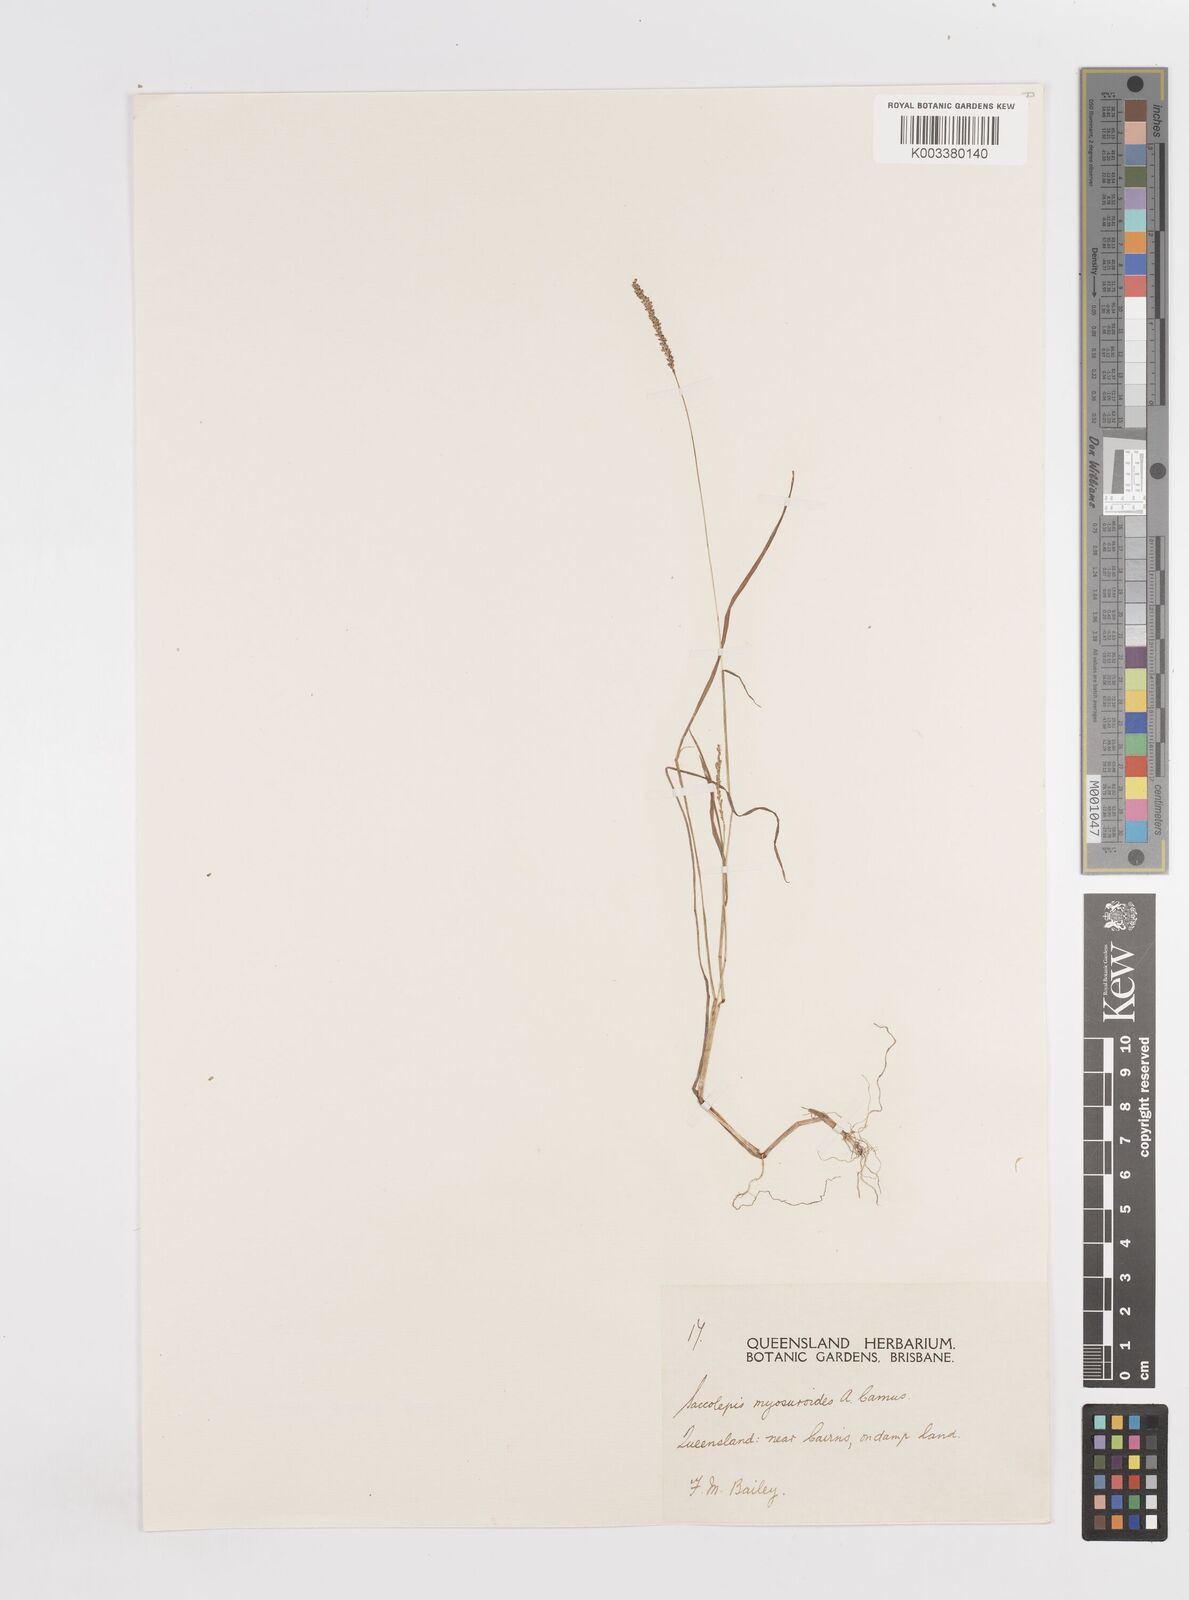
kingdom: Plantae
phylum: Tracheophyta
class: Liliopsida
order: Poales
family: Poaceae
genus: Sacciolepis
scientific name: Sacciolepis myosuroides
